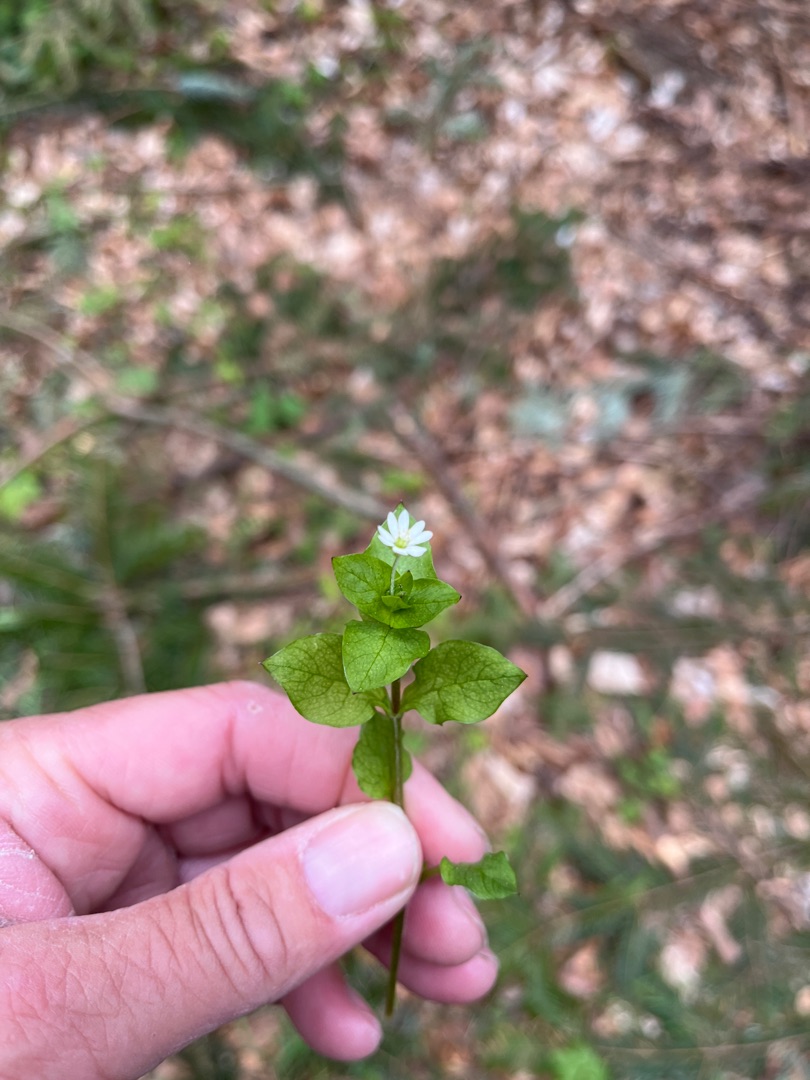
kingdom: Plantae
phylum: Tracheophyta
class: Magnoliopsida
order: Caryophyllales
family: Caryophyllaceae
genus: Stellaria
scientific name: Stellaria media
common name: Almindelig fuglegræs
